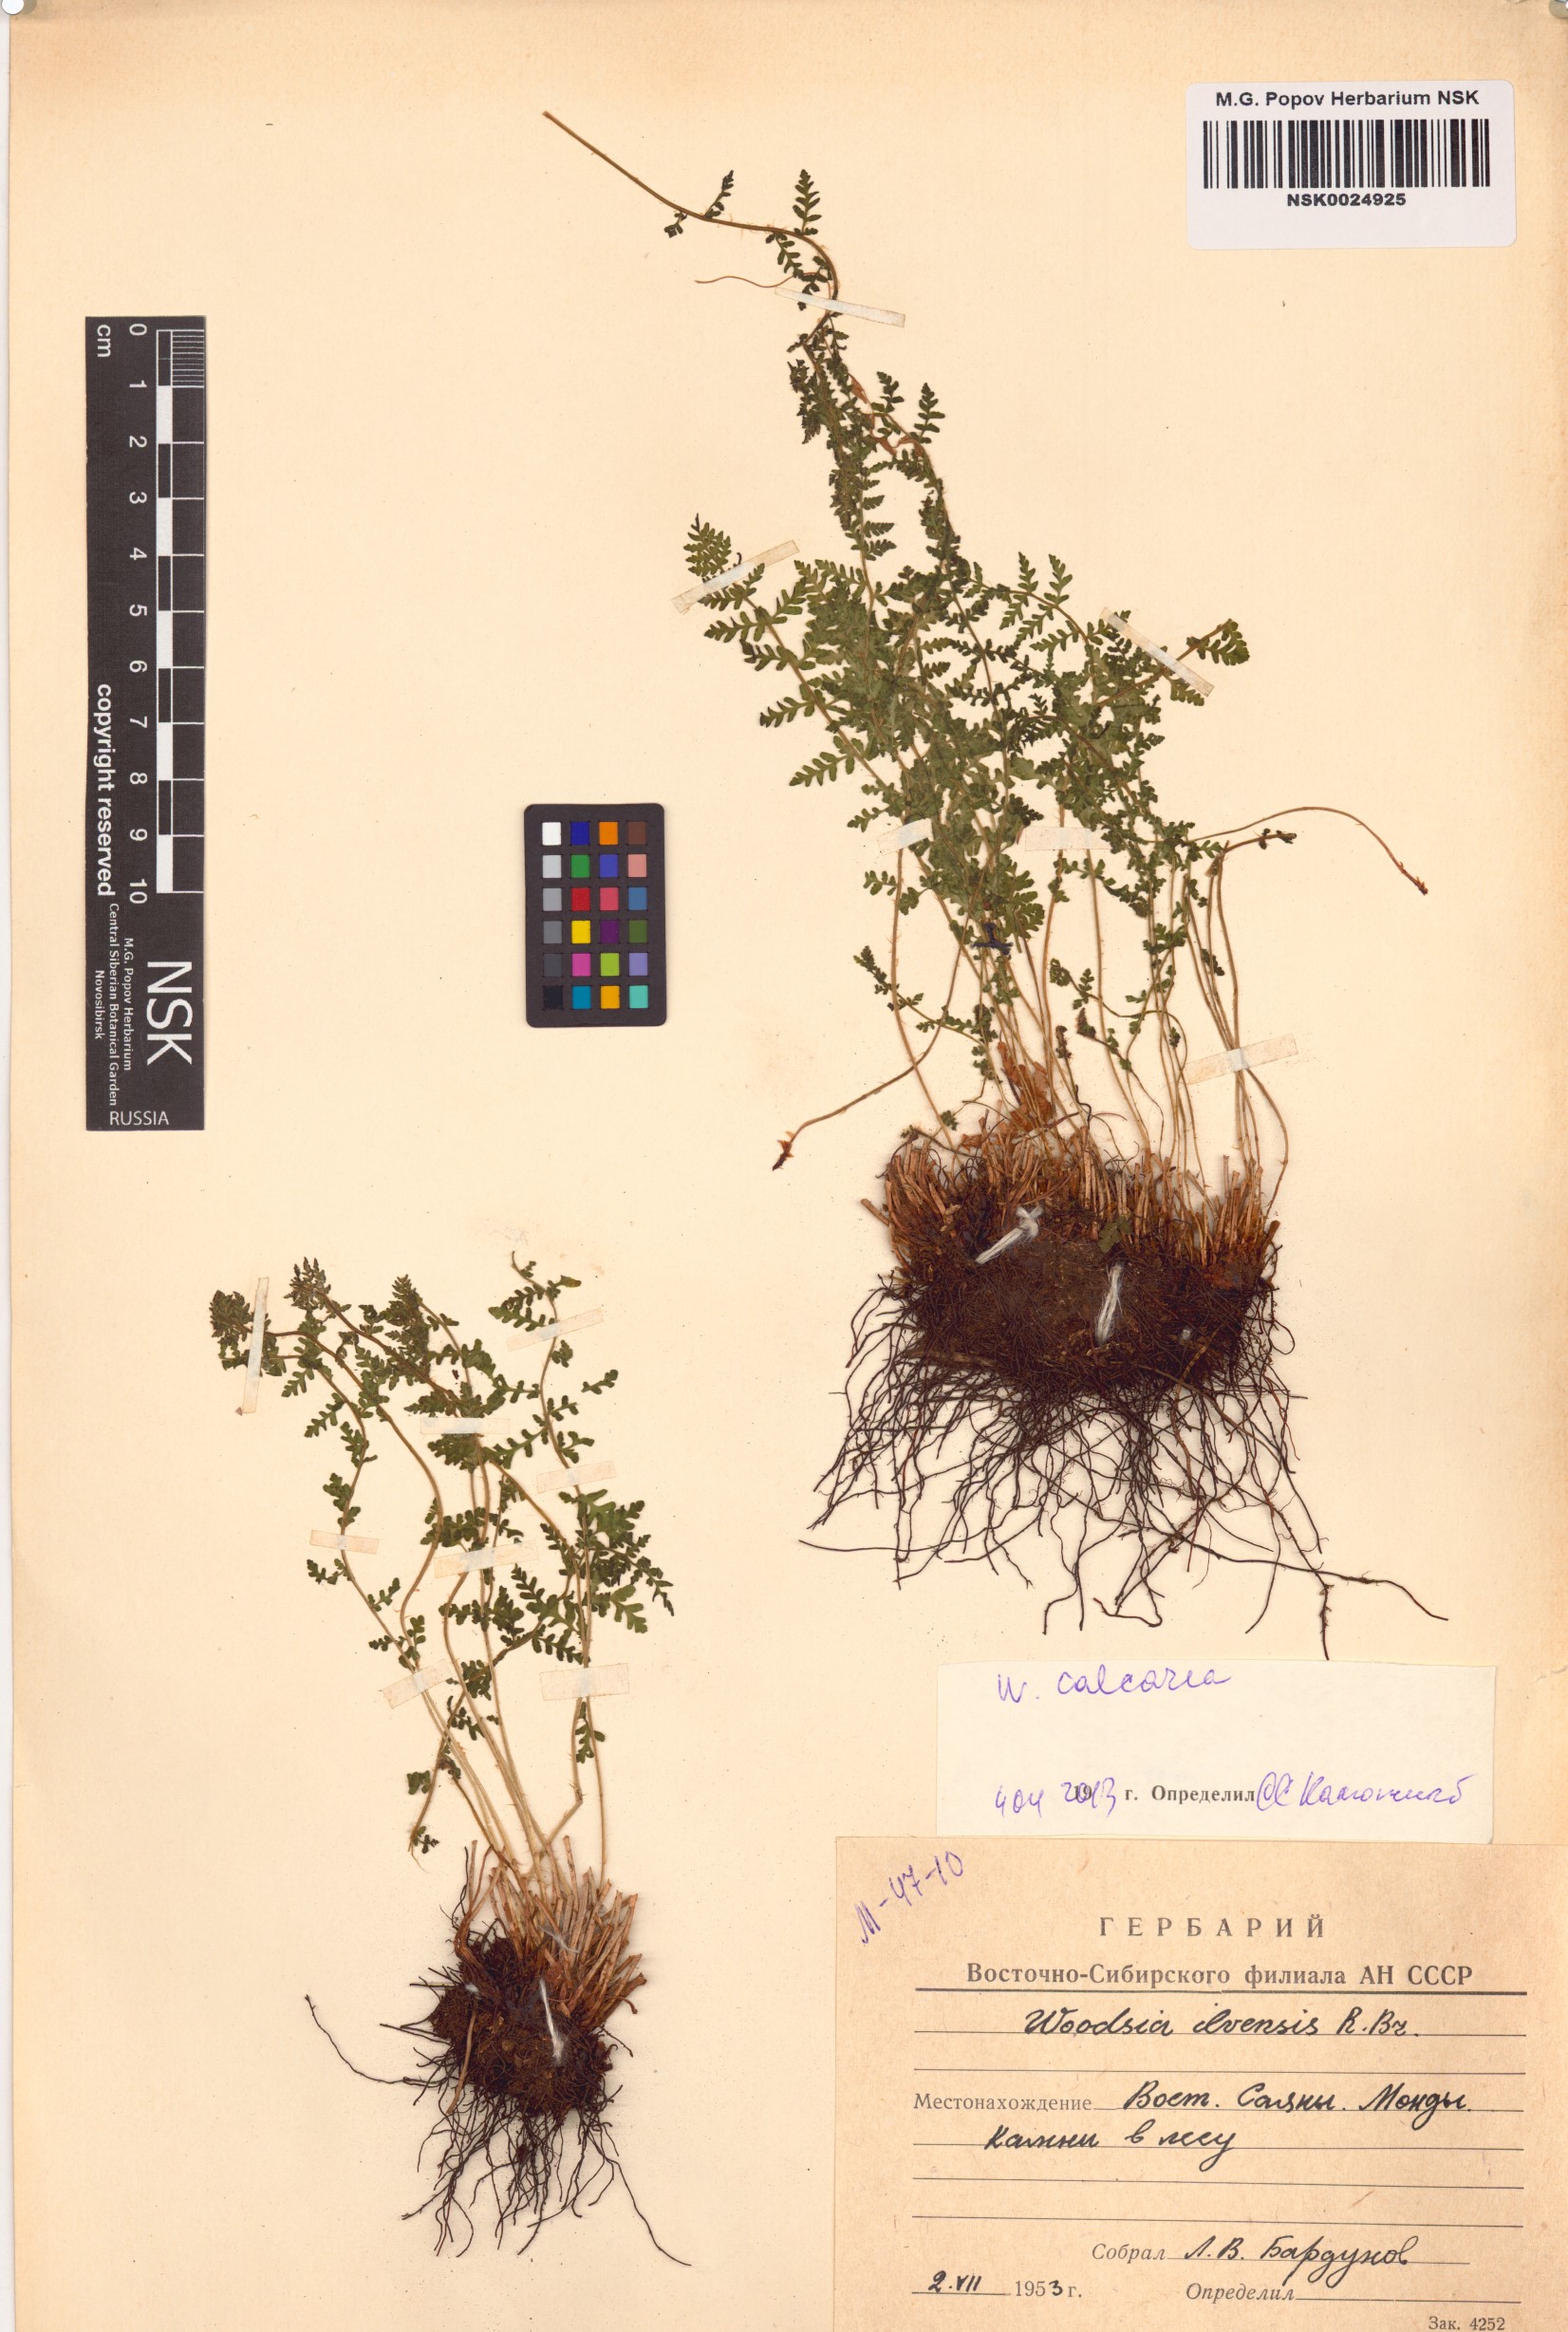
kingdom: Plantae
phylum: Tracheophyta
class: Polypodiopsida
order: Polypodiales
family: Woodsiaceae
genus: Woodsia
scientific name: Woodsia calcarea
